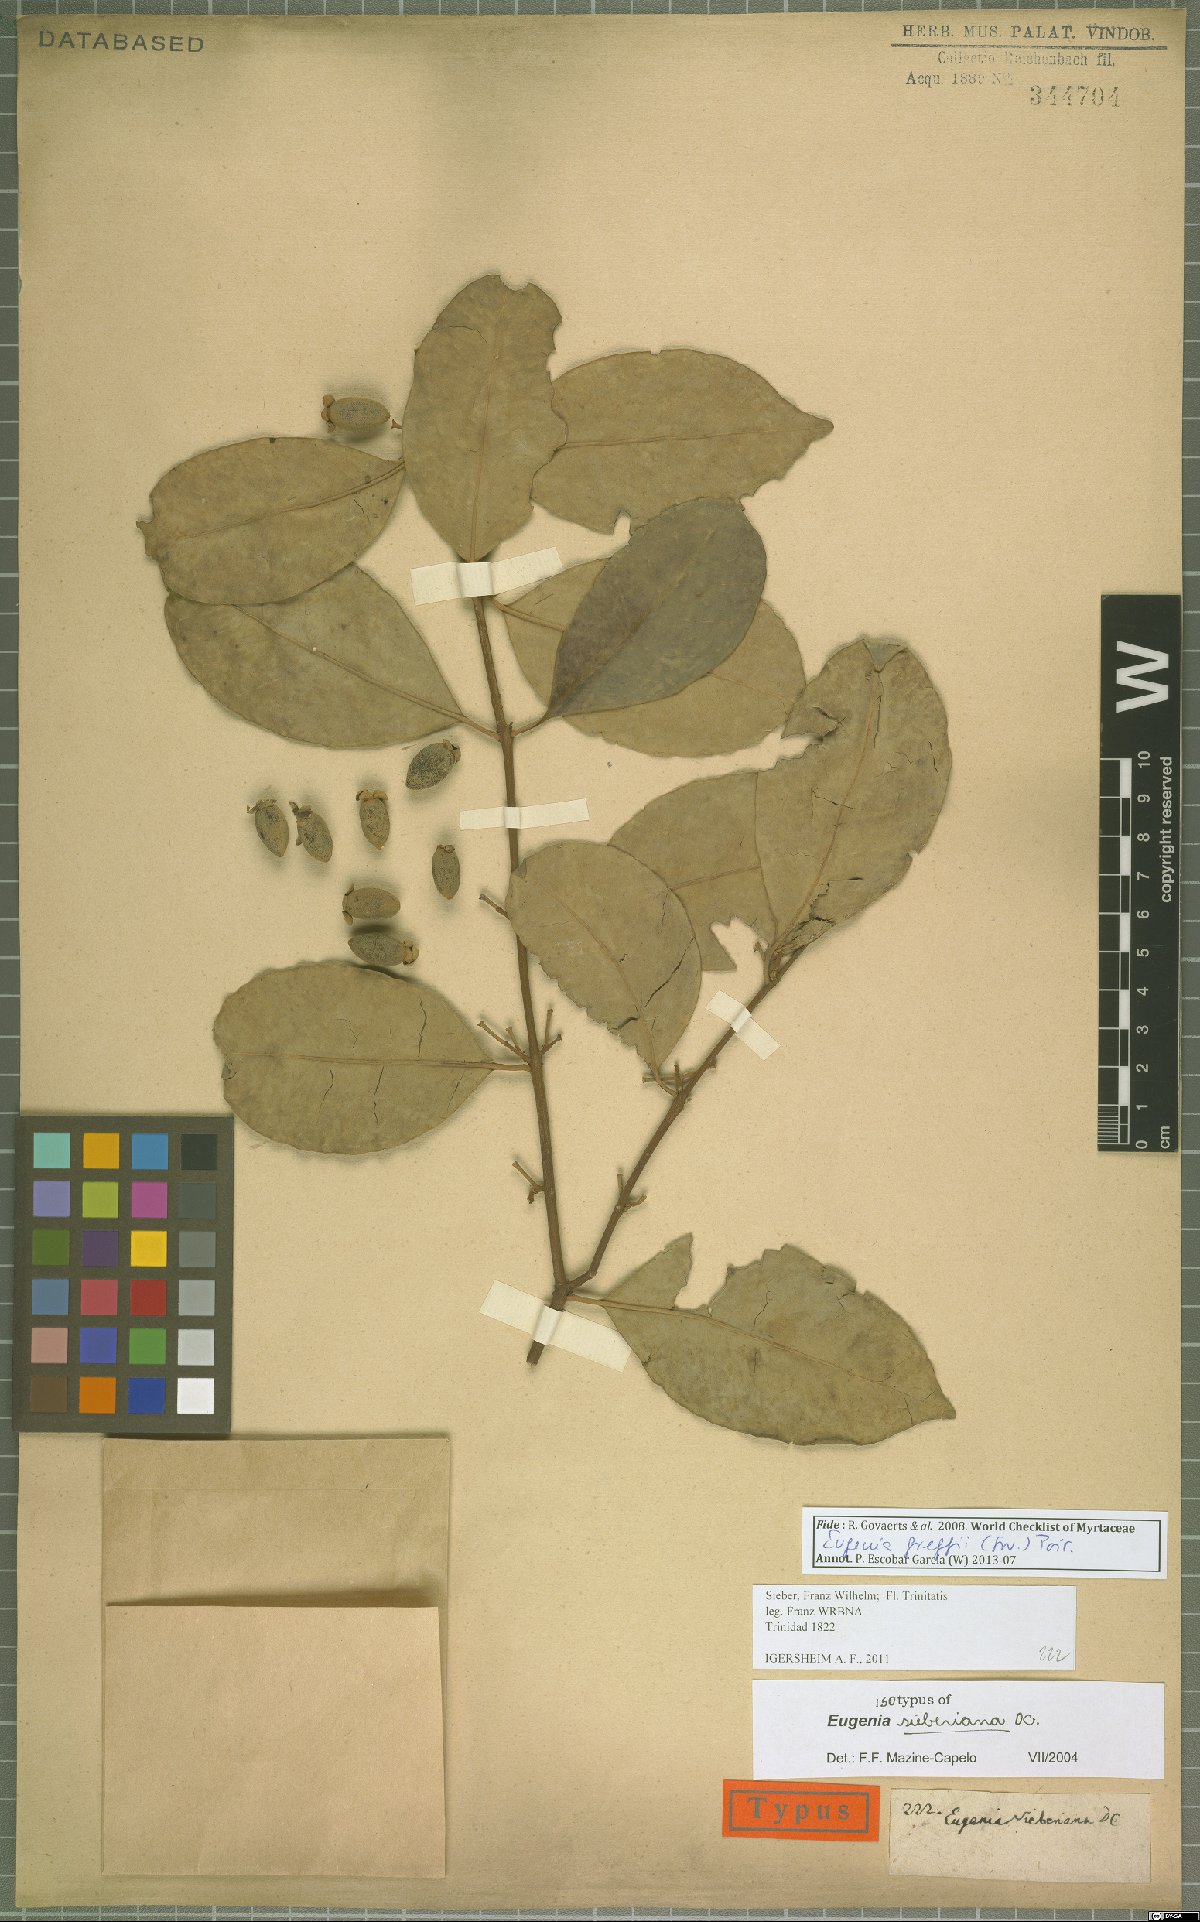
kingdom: Plantae
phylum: Tracheophyta
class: Magnoliopsida
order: Myrtales
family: Myrtaceae
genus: Eugenia
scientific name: Eugenia greggii
